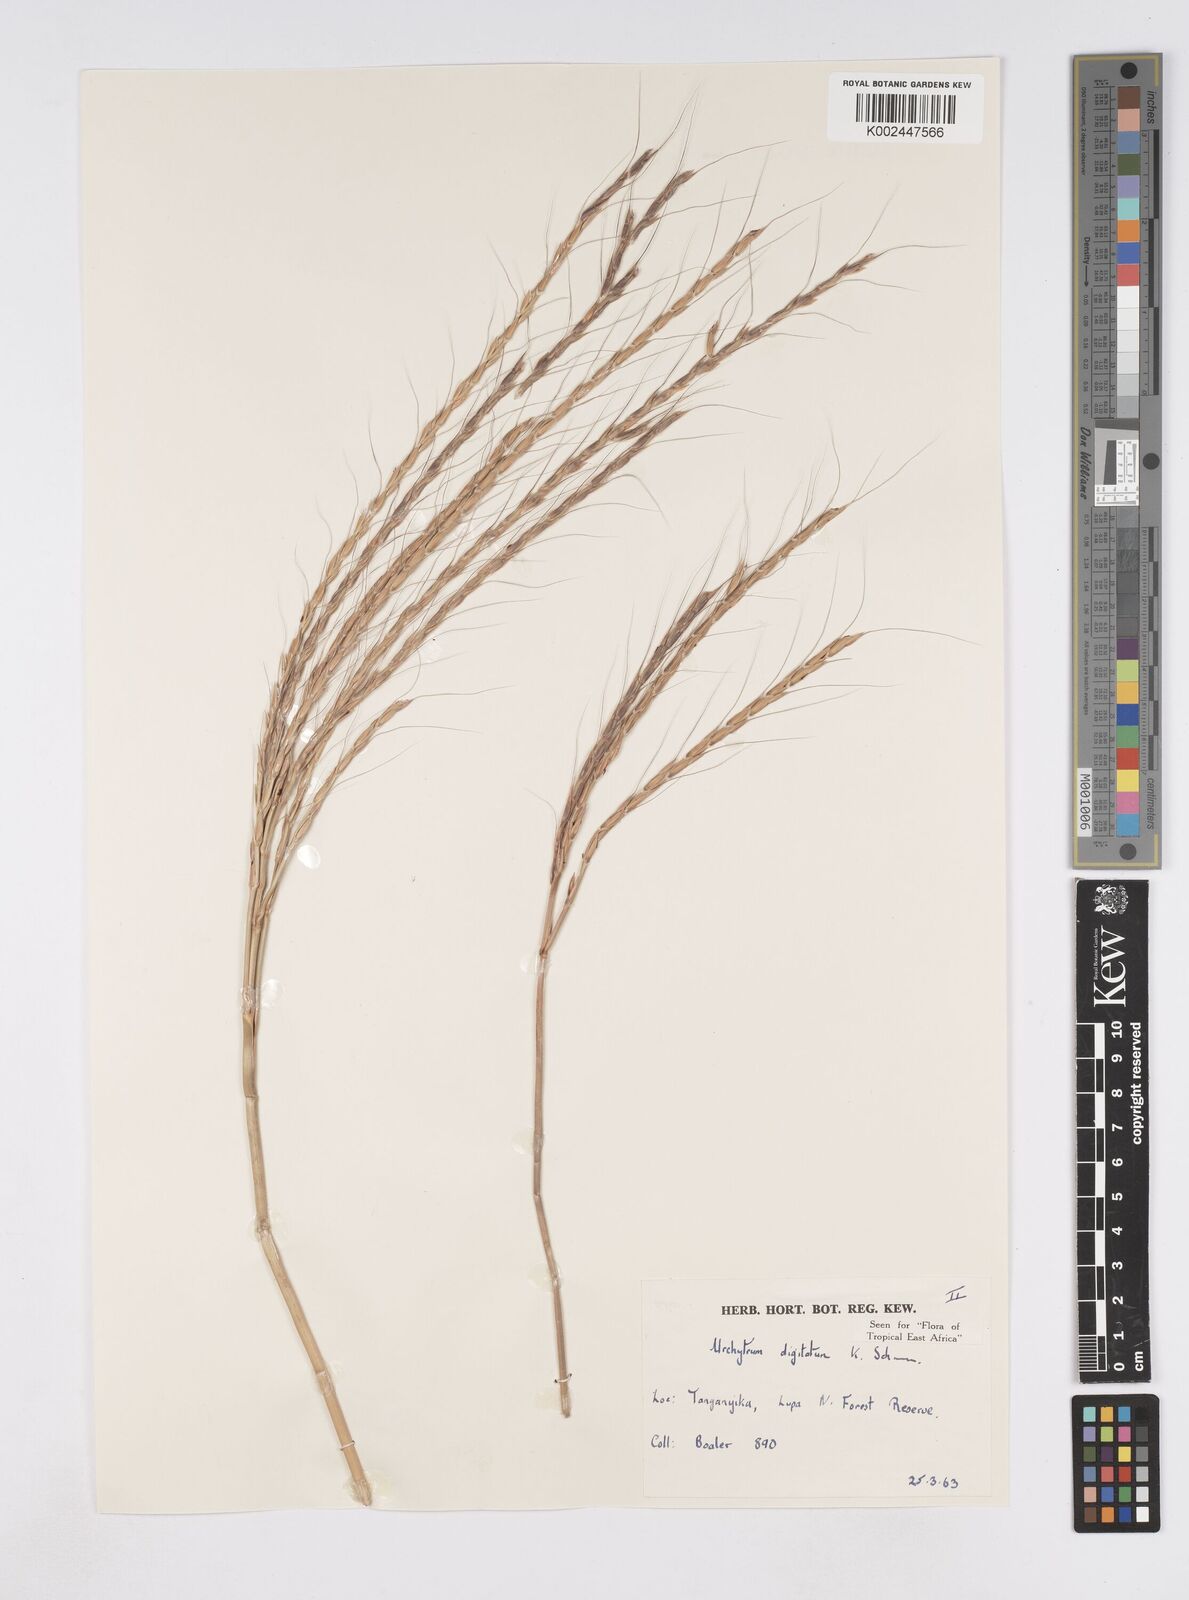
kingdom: Plantae
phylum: Tracheophyta
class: Liliopsida
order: Poales
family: Poaceae
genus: Urelytrum
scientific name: Urelytrum digitatum
